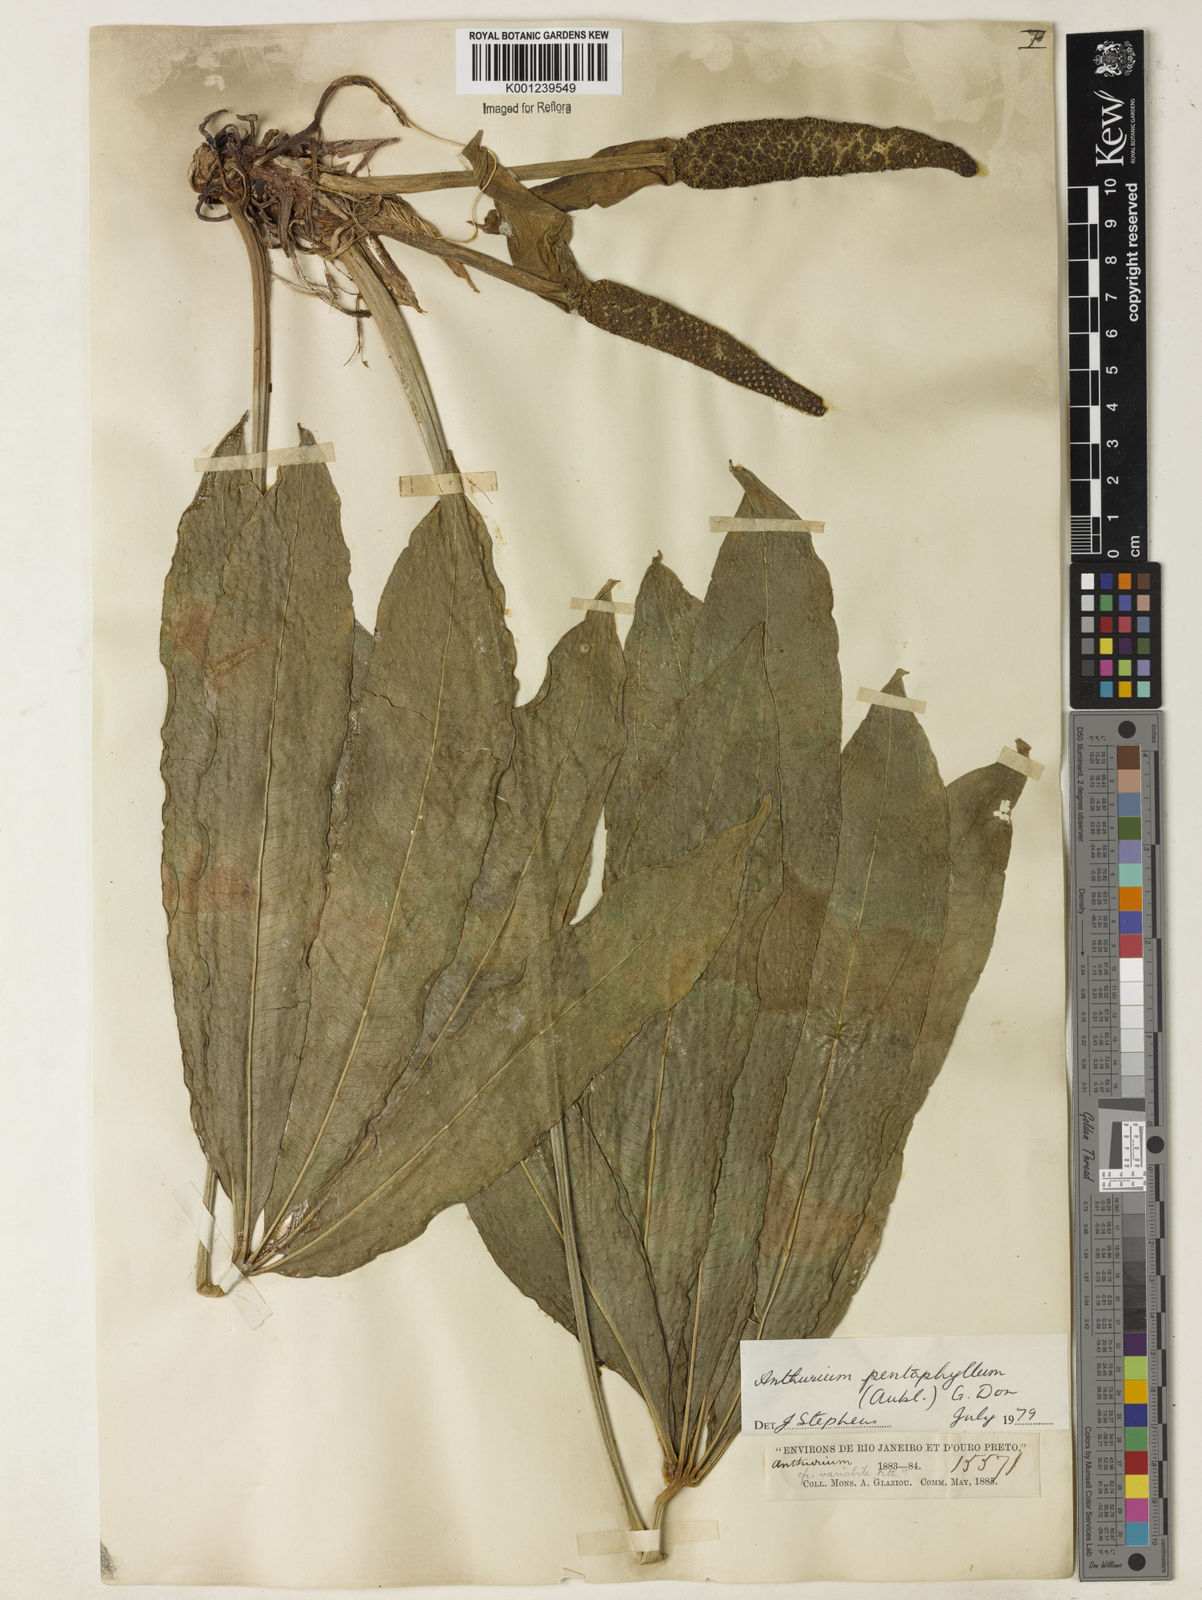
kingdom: Plantae
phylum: Tracheophyta
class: Liliopsida
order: Alismatales
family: Araceae
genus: Anthurium
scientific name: Anthurium pentaphyllum
